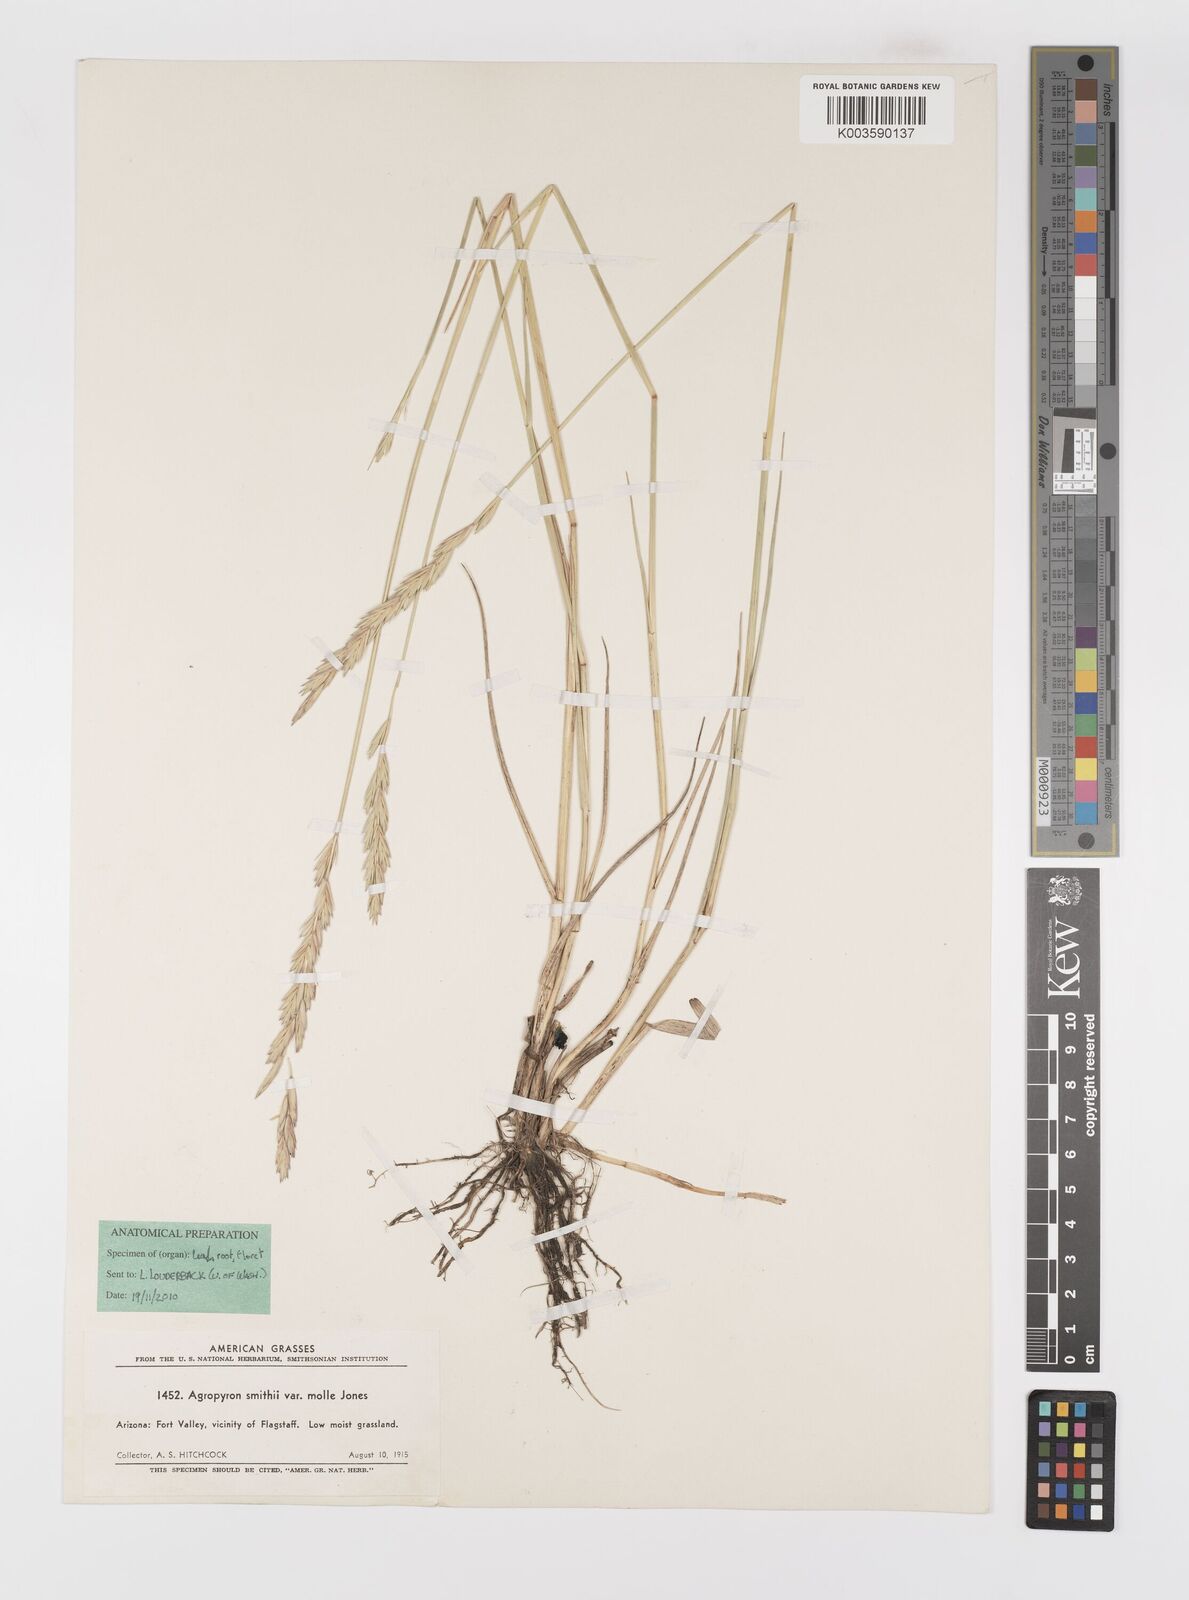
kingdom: Plantae
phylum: Tracheophyta
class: Liliopsida
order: Poales
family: Poaceae
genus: Elymus
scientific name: Elymus smithii
